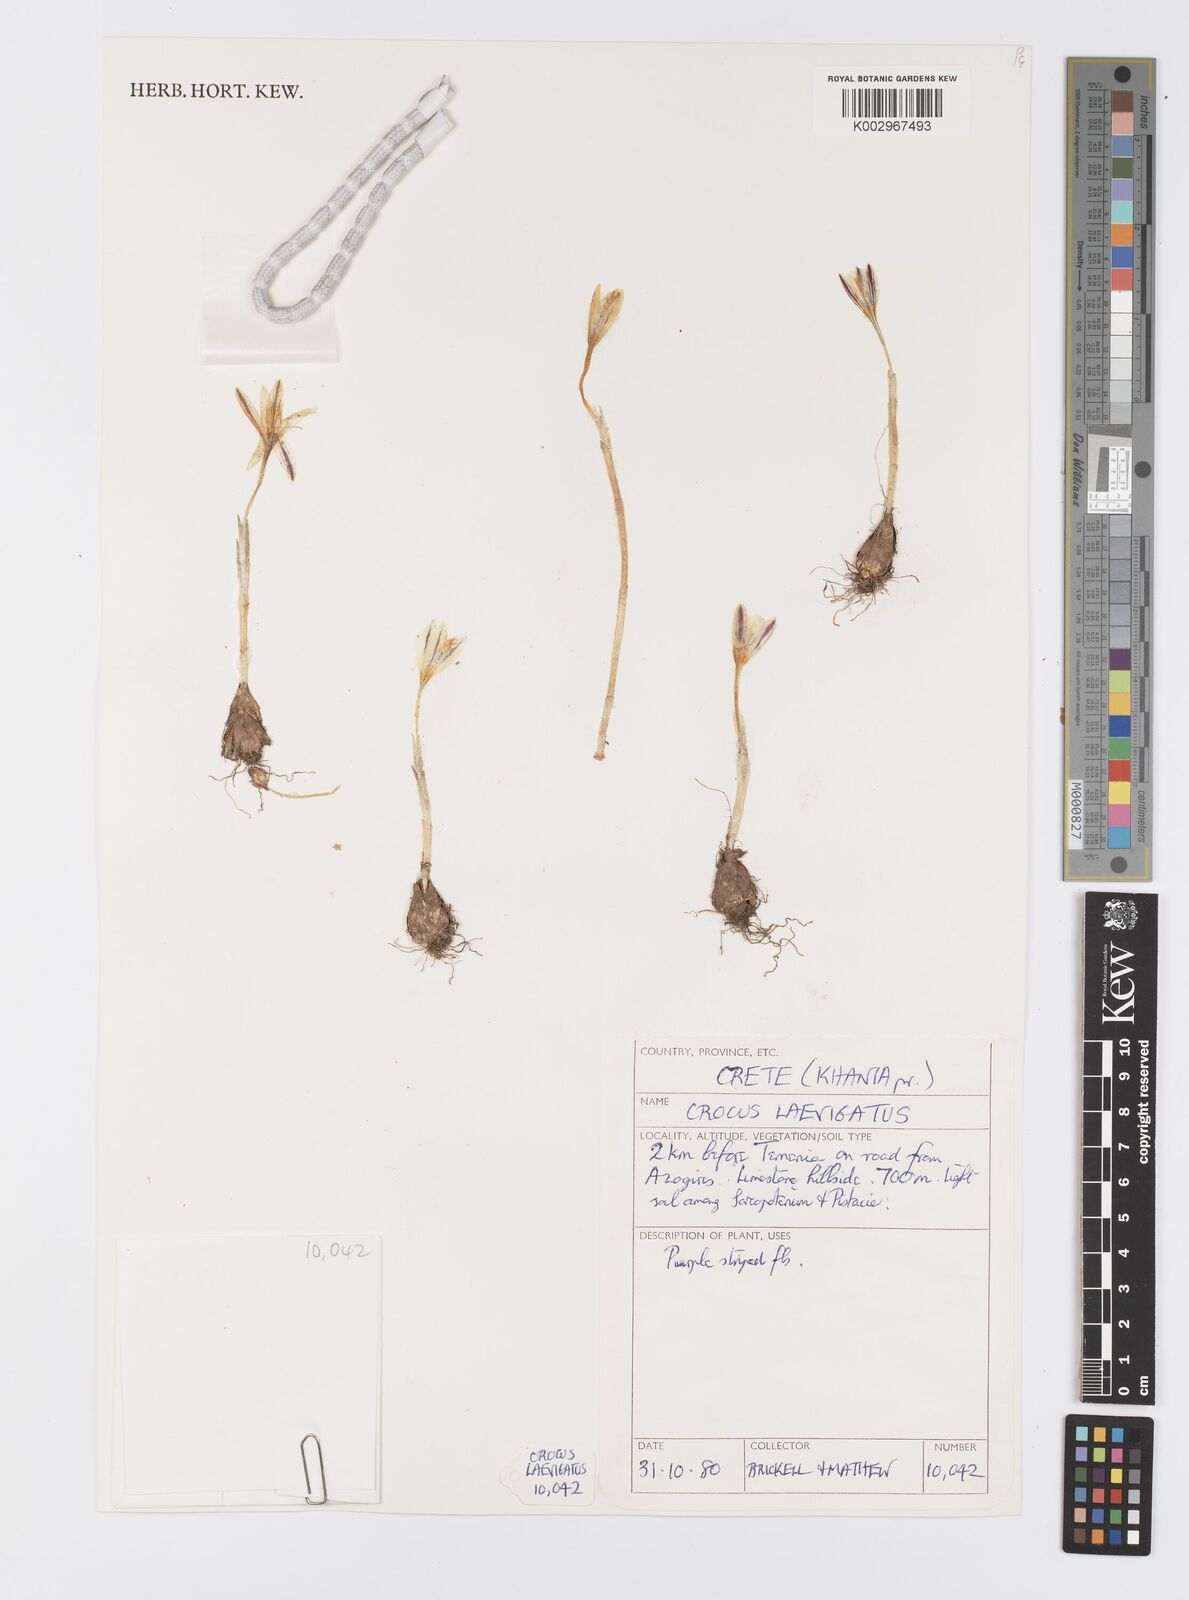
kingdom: Plantae
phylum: Tracheophyta
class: Liliopsida
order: Asparagales
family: Iridaceae
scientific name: Iridaceae
